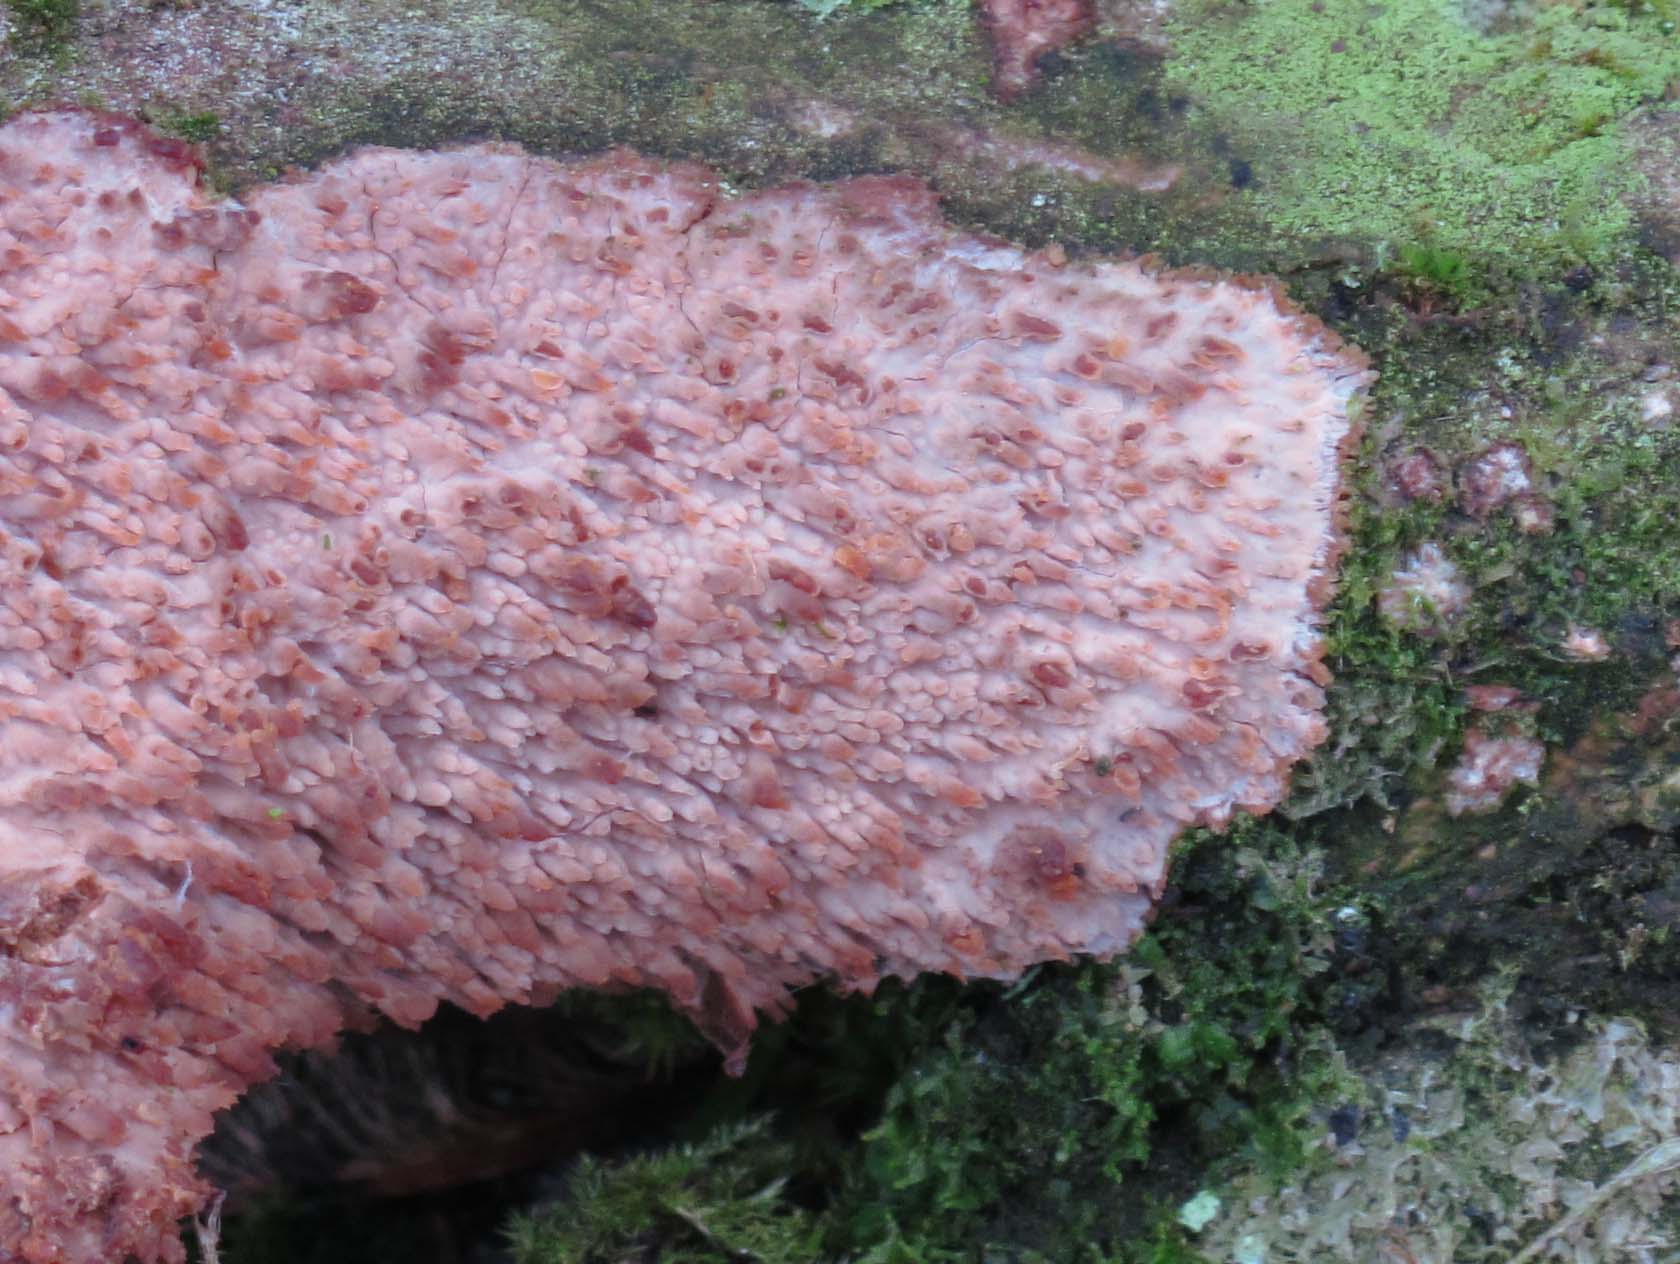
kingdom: Fungi
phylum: Basidiomycota
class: Agaricomycetes
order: Agaricales
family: Radulomycetaceae
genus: Radulomyces
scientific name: Radulomyces molaris
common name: tandet naftalinskind
